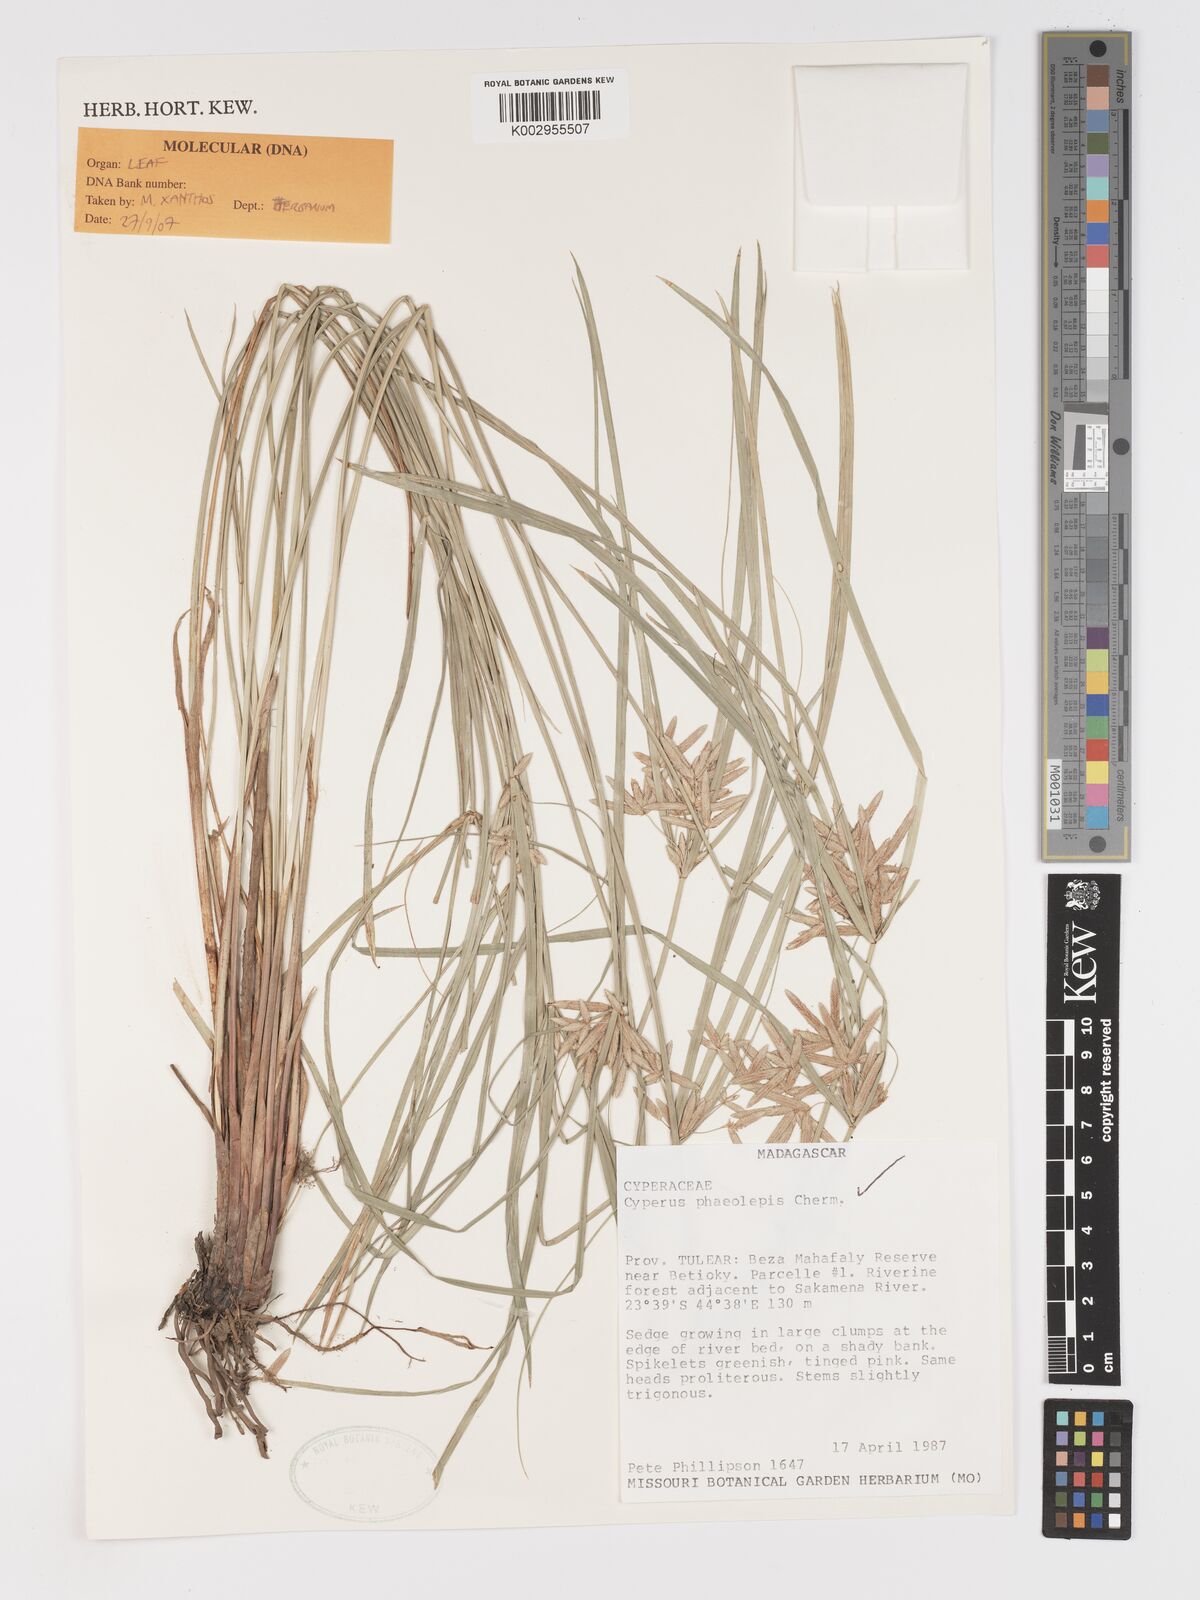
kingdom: Plantae
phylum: Tracheophyta
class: Liliopsida
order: Poales
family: Cyperaceae
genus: Cyperus
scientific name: Cyperus phaeolepis
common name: Madagascar flatsedge
